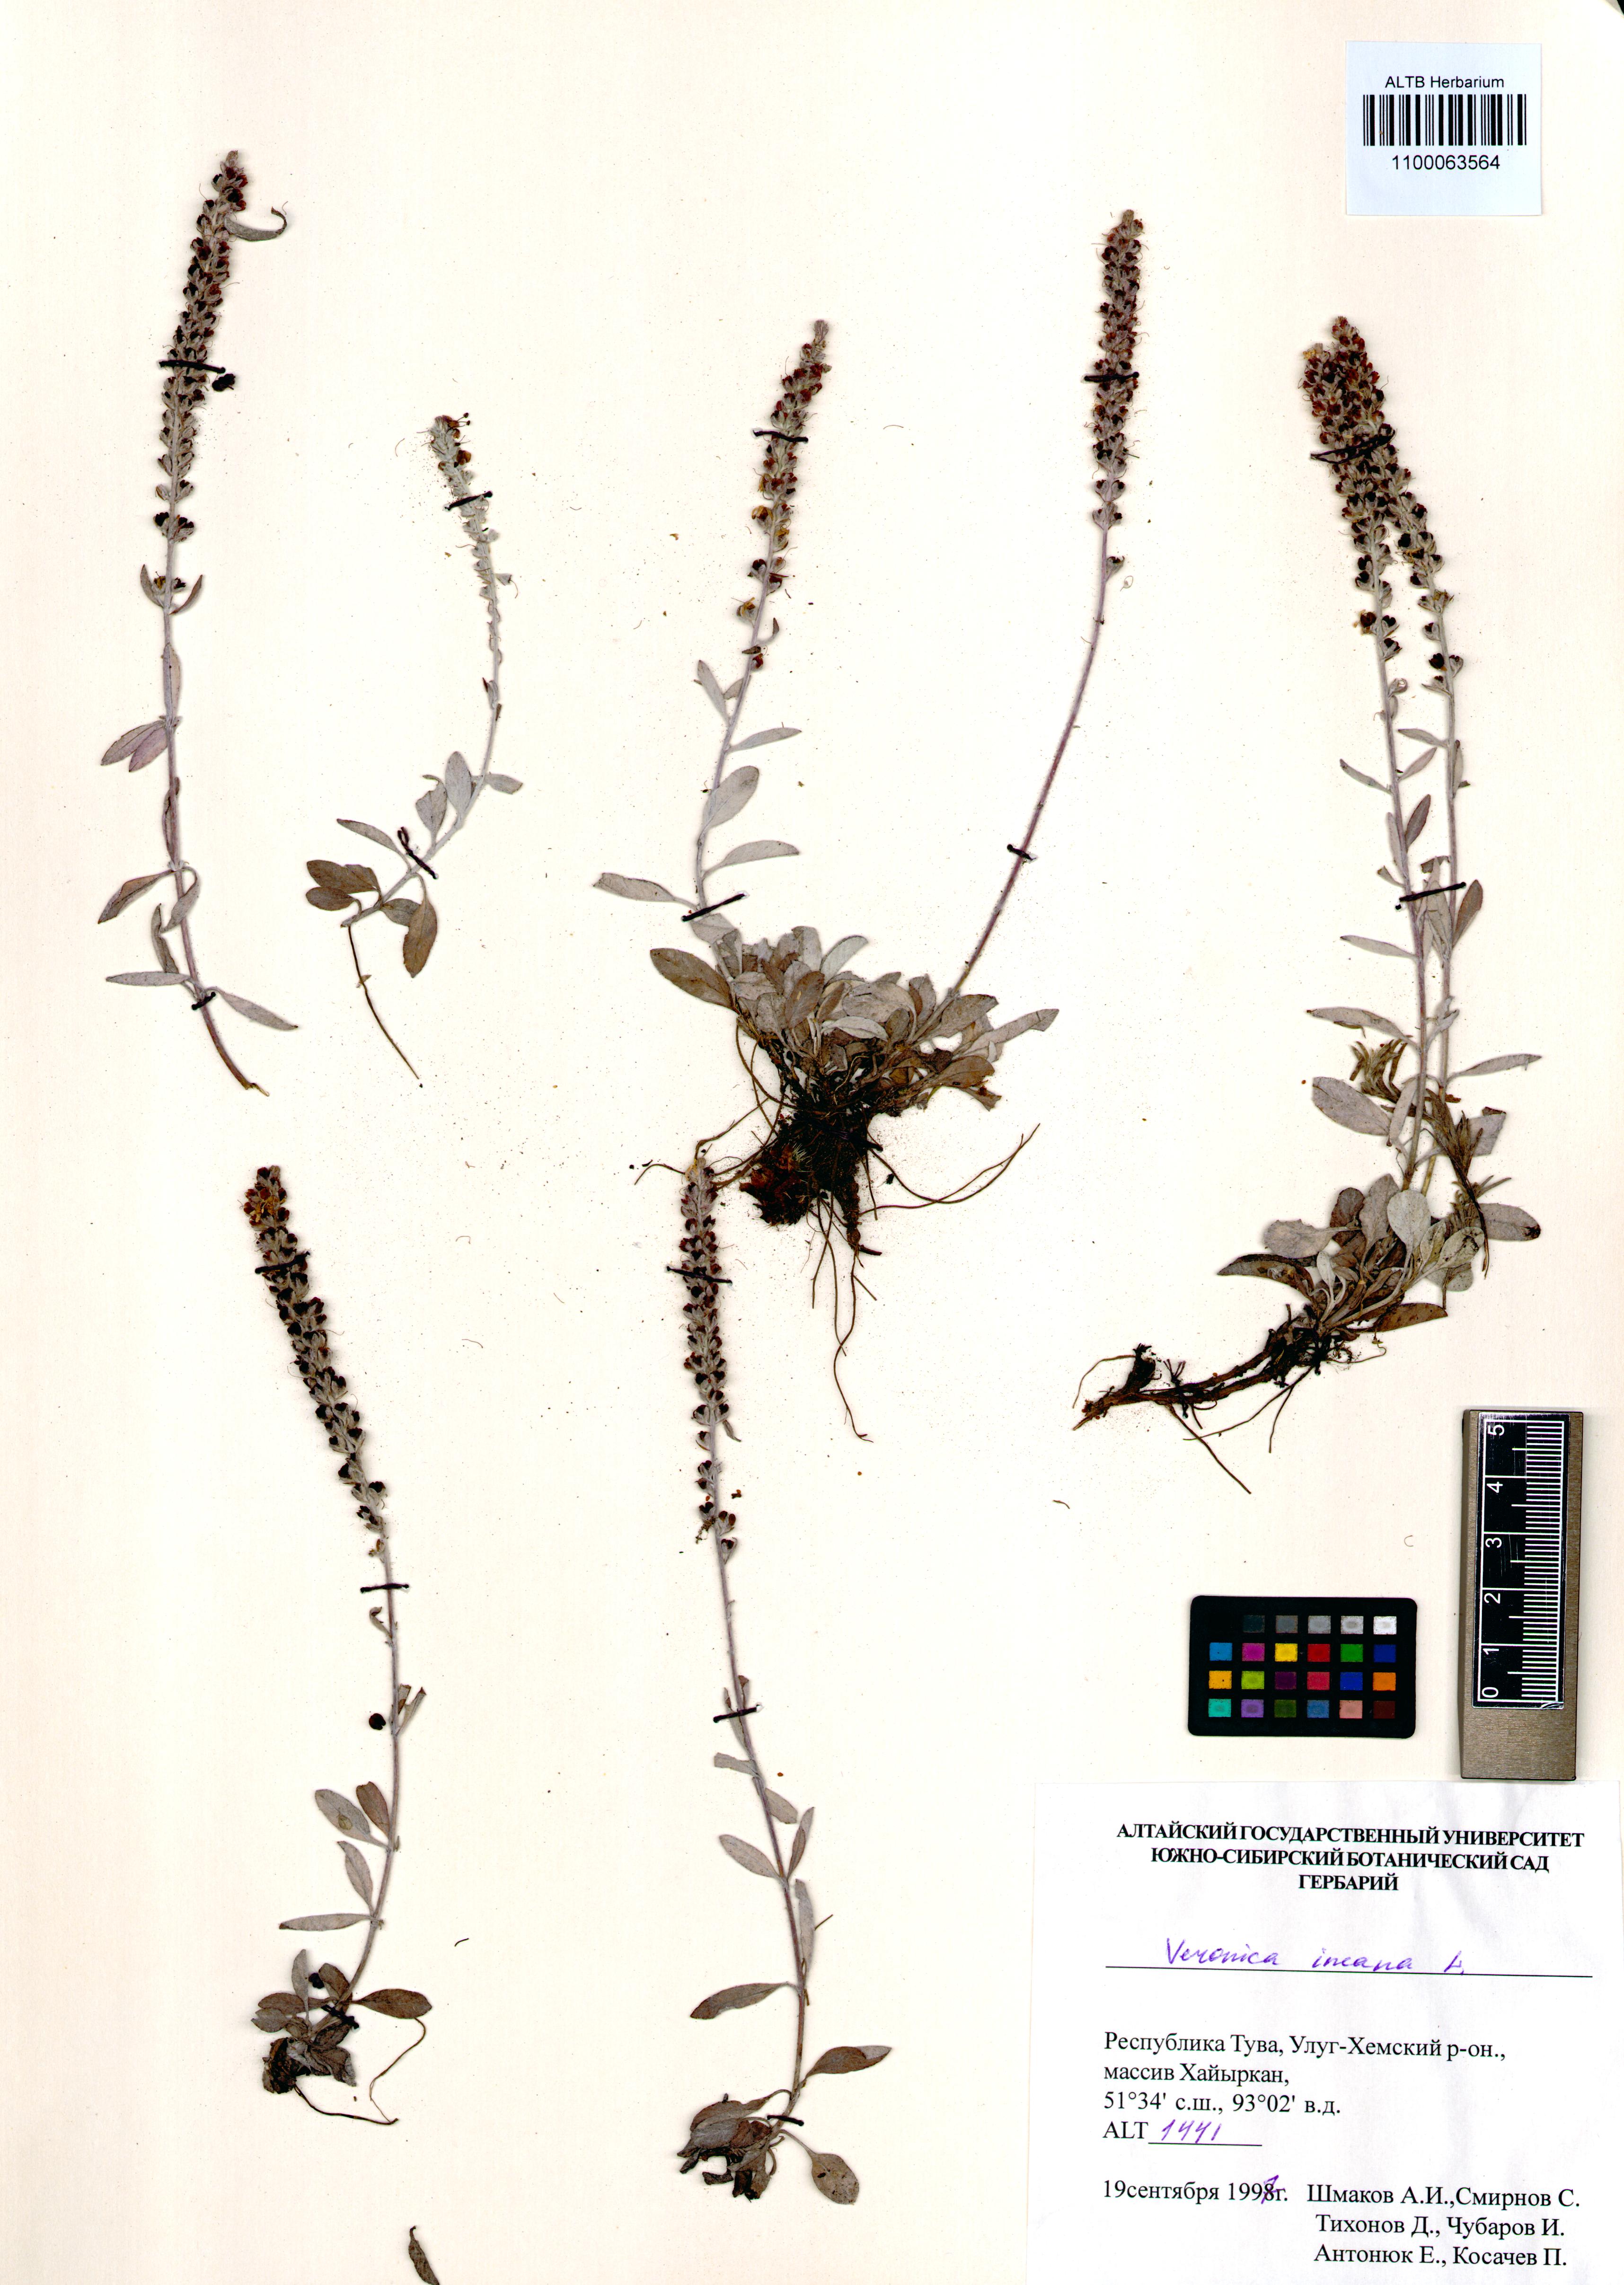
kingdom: Plantae
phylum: Tracheophyta
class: Magnoliopsida
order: Lamiales
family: Plantaginaceae
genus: Veronica
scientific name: Veronica incana
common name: Silver speedwell
